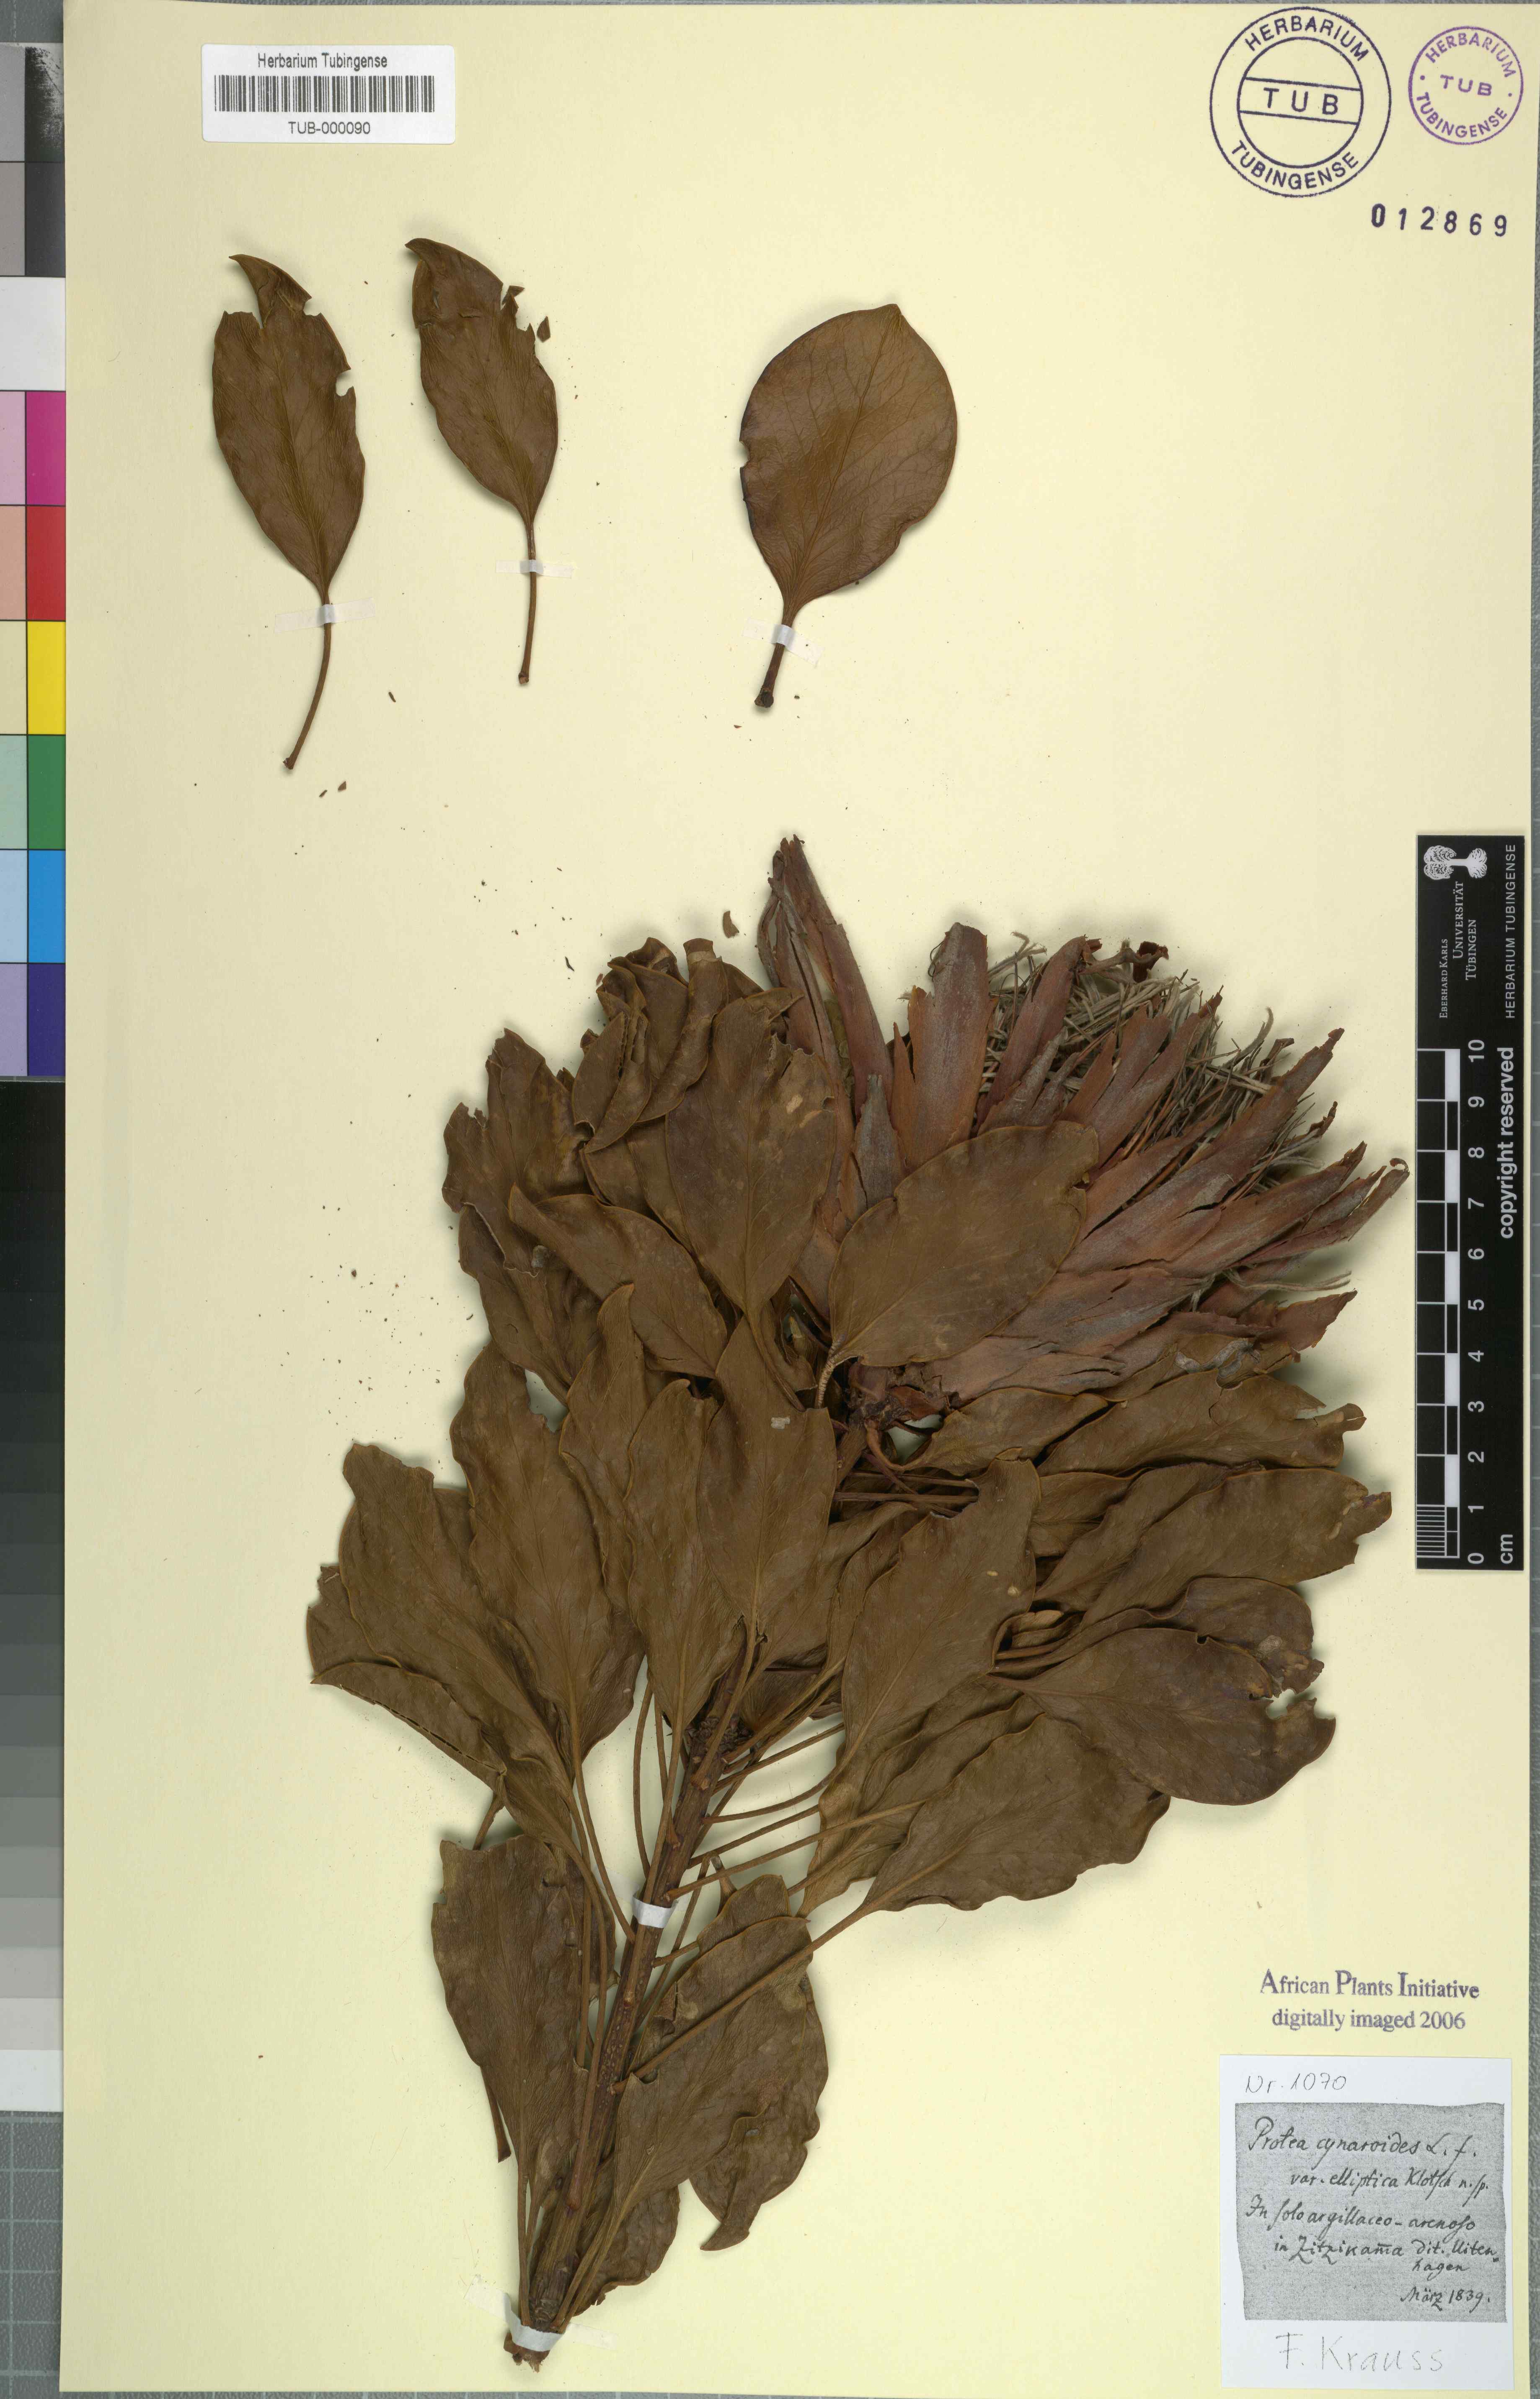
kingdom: Plantae
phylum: Tracheophyta
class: Magnoliopsida
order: Proteales
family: Proteaceae
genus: Protea
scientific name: Protea cynaroides
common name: King protea
